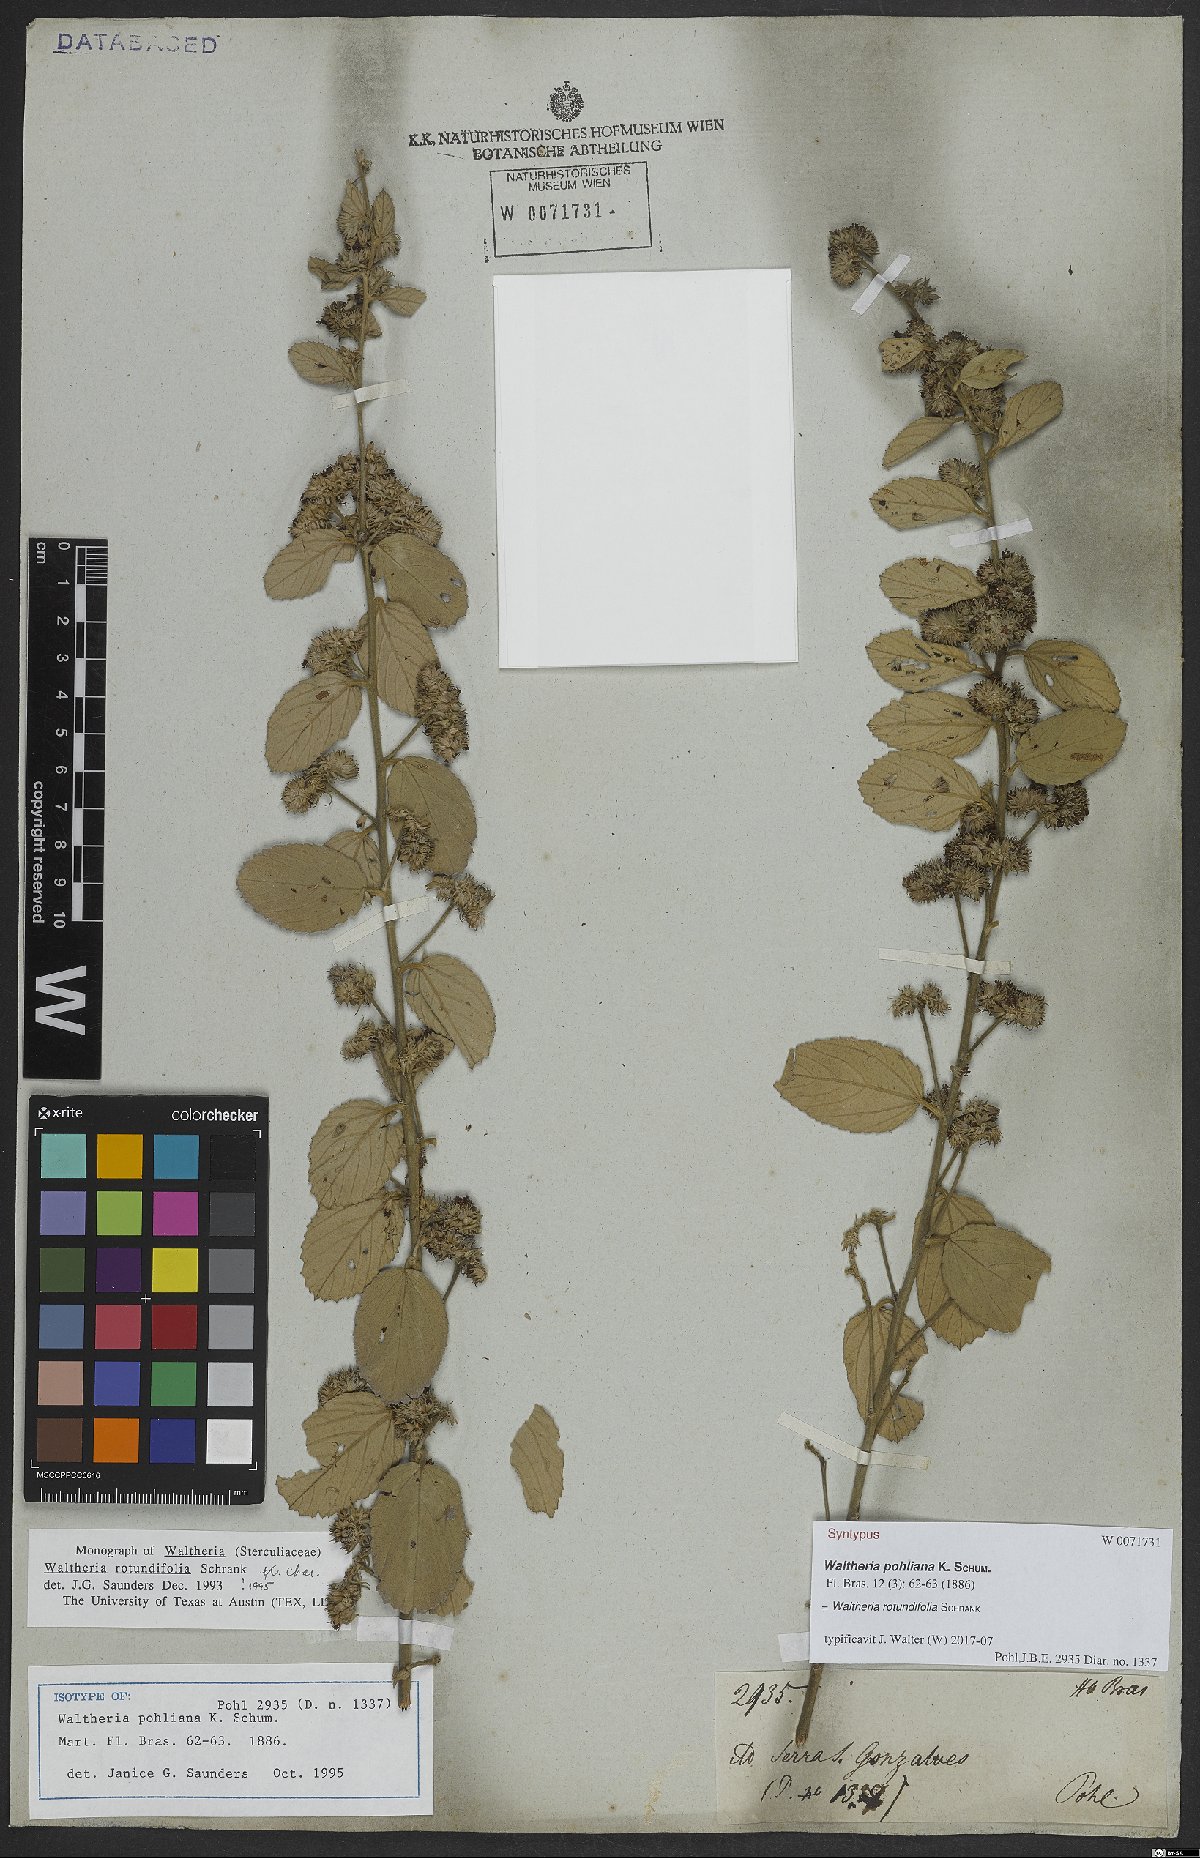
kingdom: Plantae
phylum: Tracheophyta
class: Magnoliopsida
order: Malvales
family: Malvaceae
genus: Waltheria
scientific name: Waltheria rotundifolia
